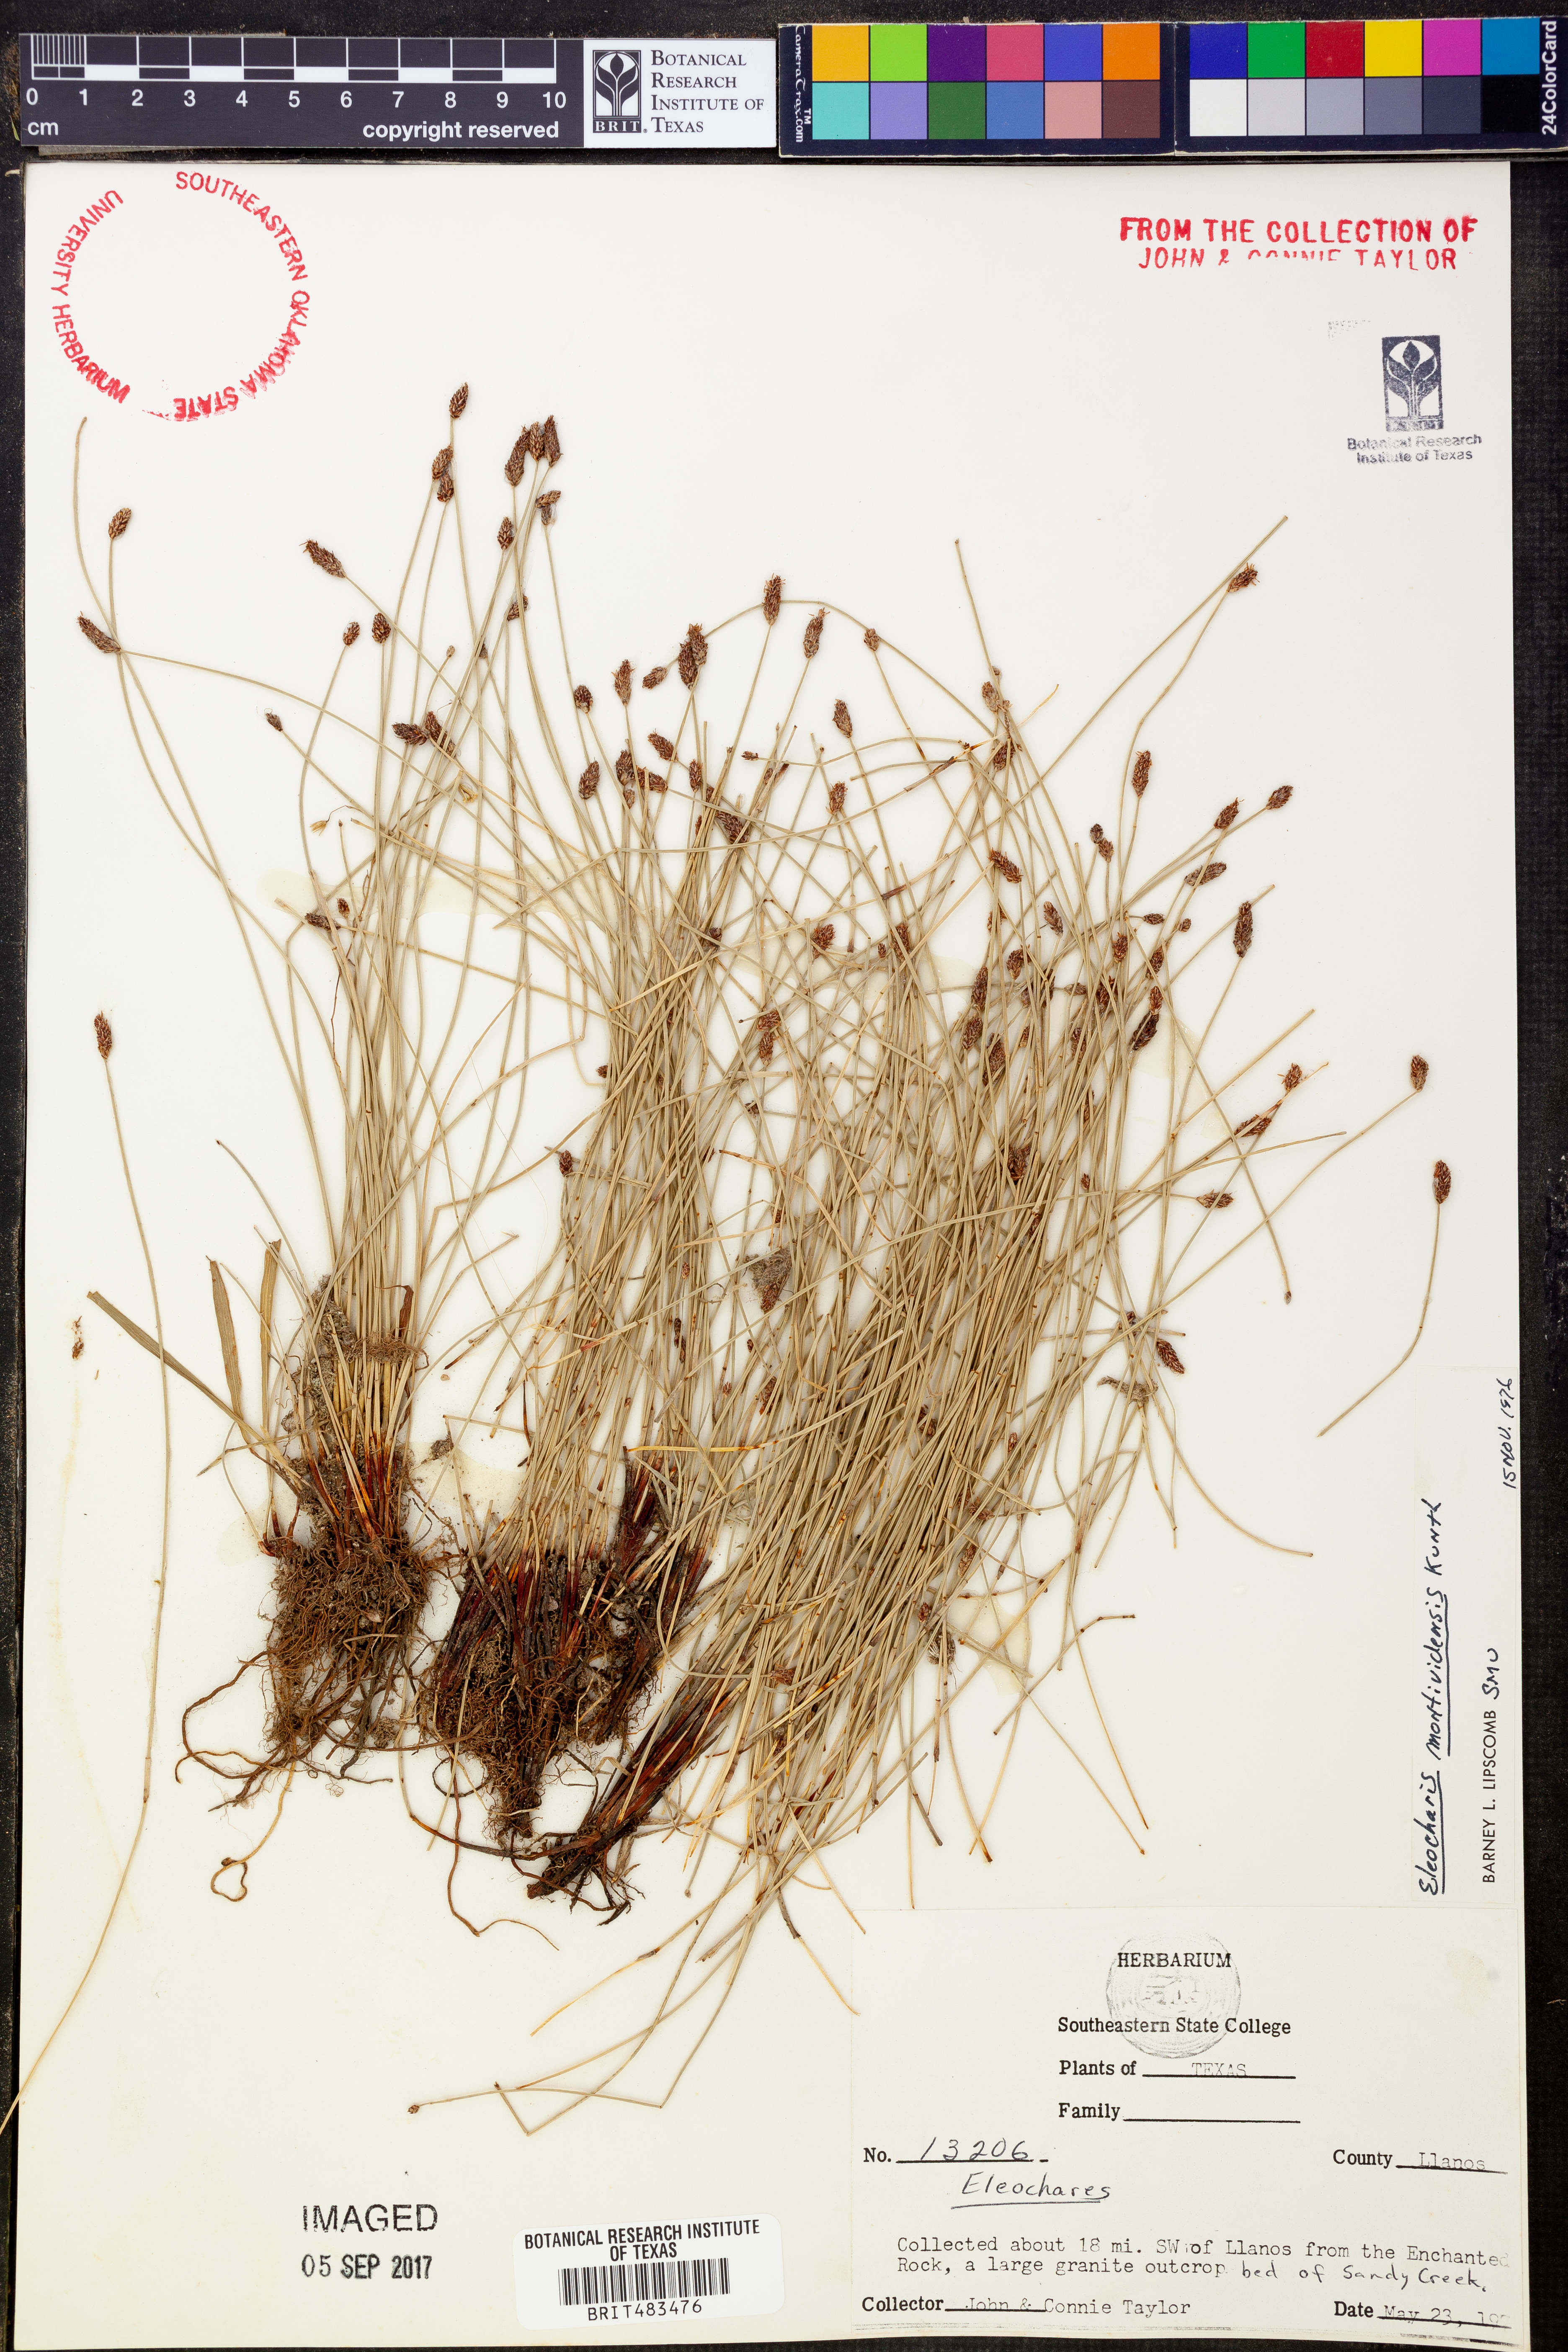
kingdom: Plantae
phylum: Tracheophyta
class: Liliopsida
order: Poales
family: Cyperaceae
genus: Eleocharis
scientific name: Eleocharis montevidensis
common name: Sand spike-rush
